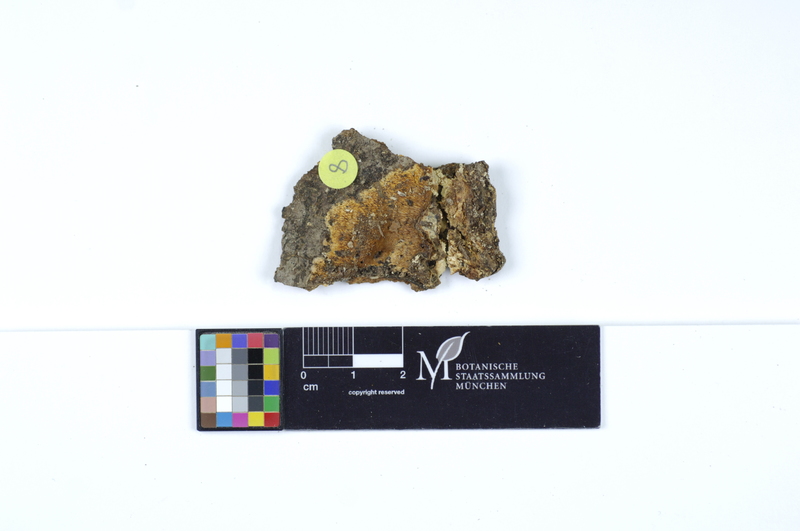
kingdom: Plantae
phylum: Tracheophyta
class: Magnoliopsida
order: Fagales
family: Fagaceae
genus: Fagus
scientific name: Fagus sylvatica
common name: Beech
